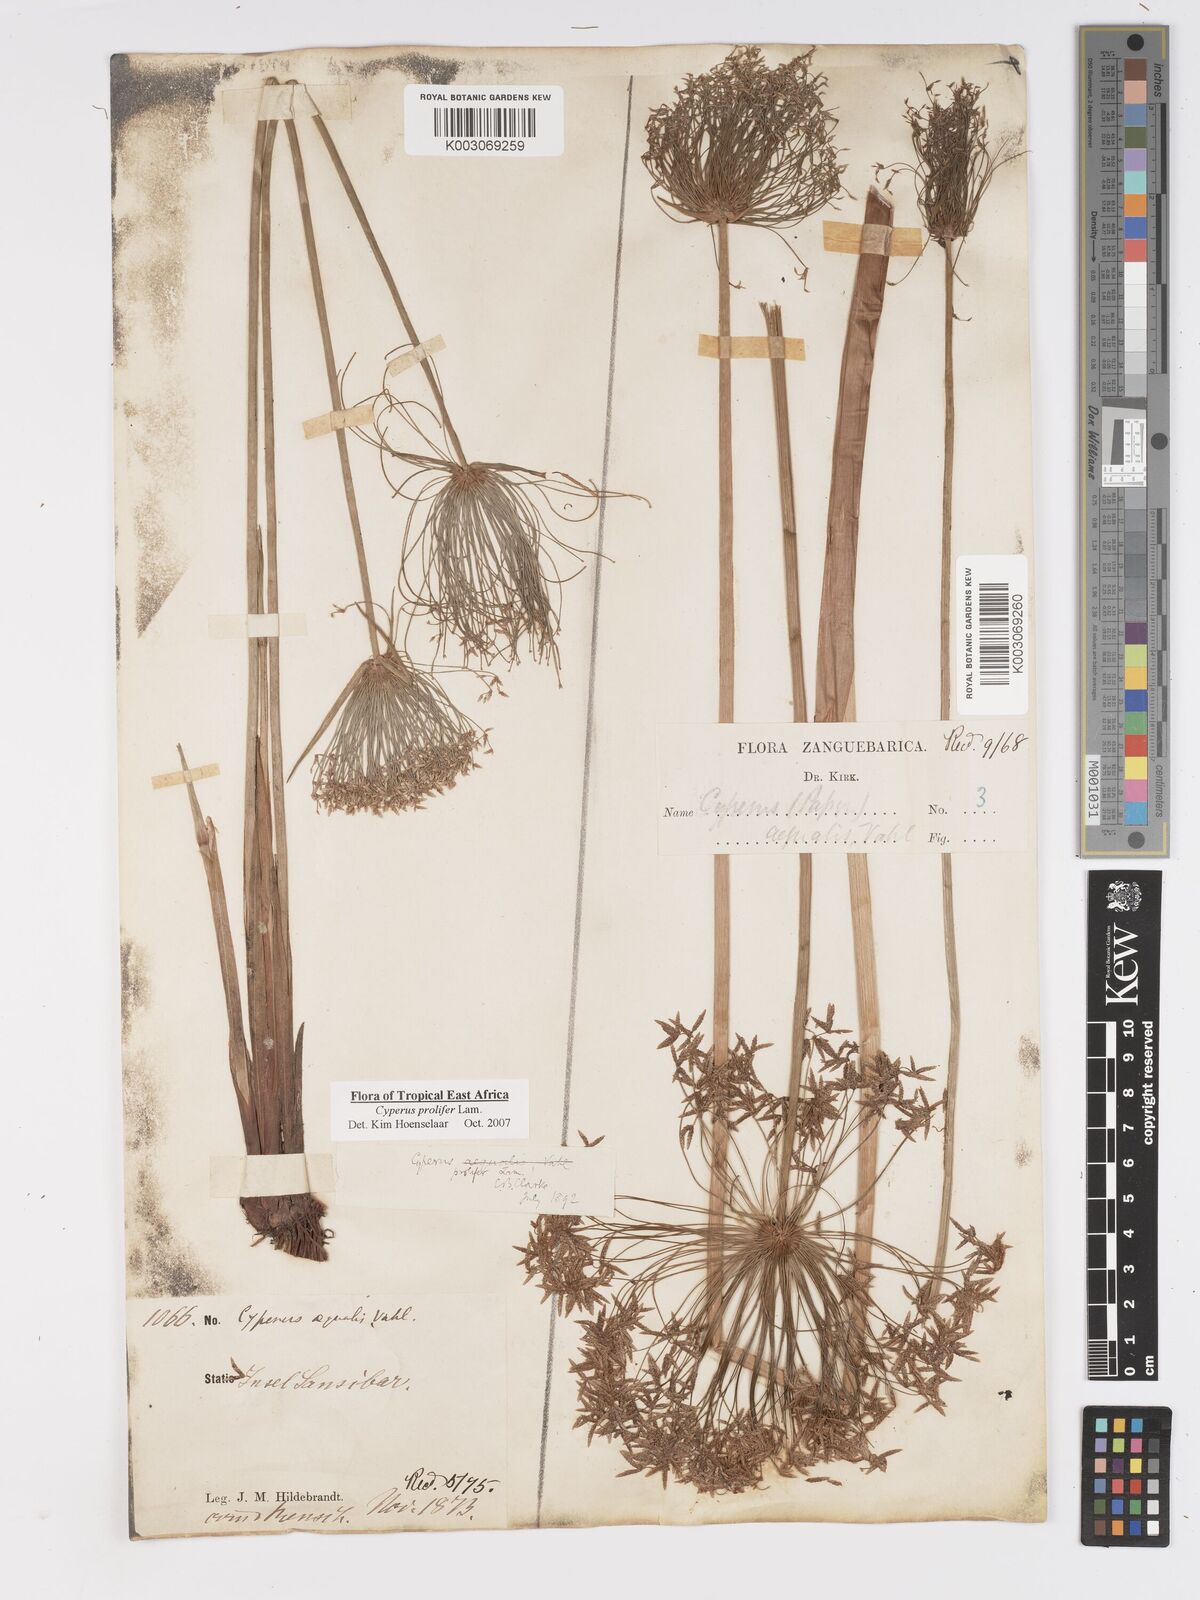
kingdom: Plantae
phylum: Tracheophyta
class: Liliopsida
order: Poales
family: Cyperaceae
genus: Cyperus
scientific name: Cyperus prolifer
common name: Miniature flatsedge
